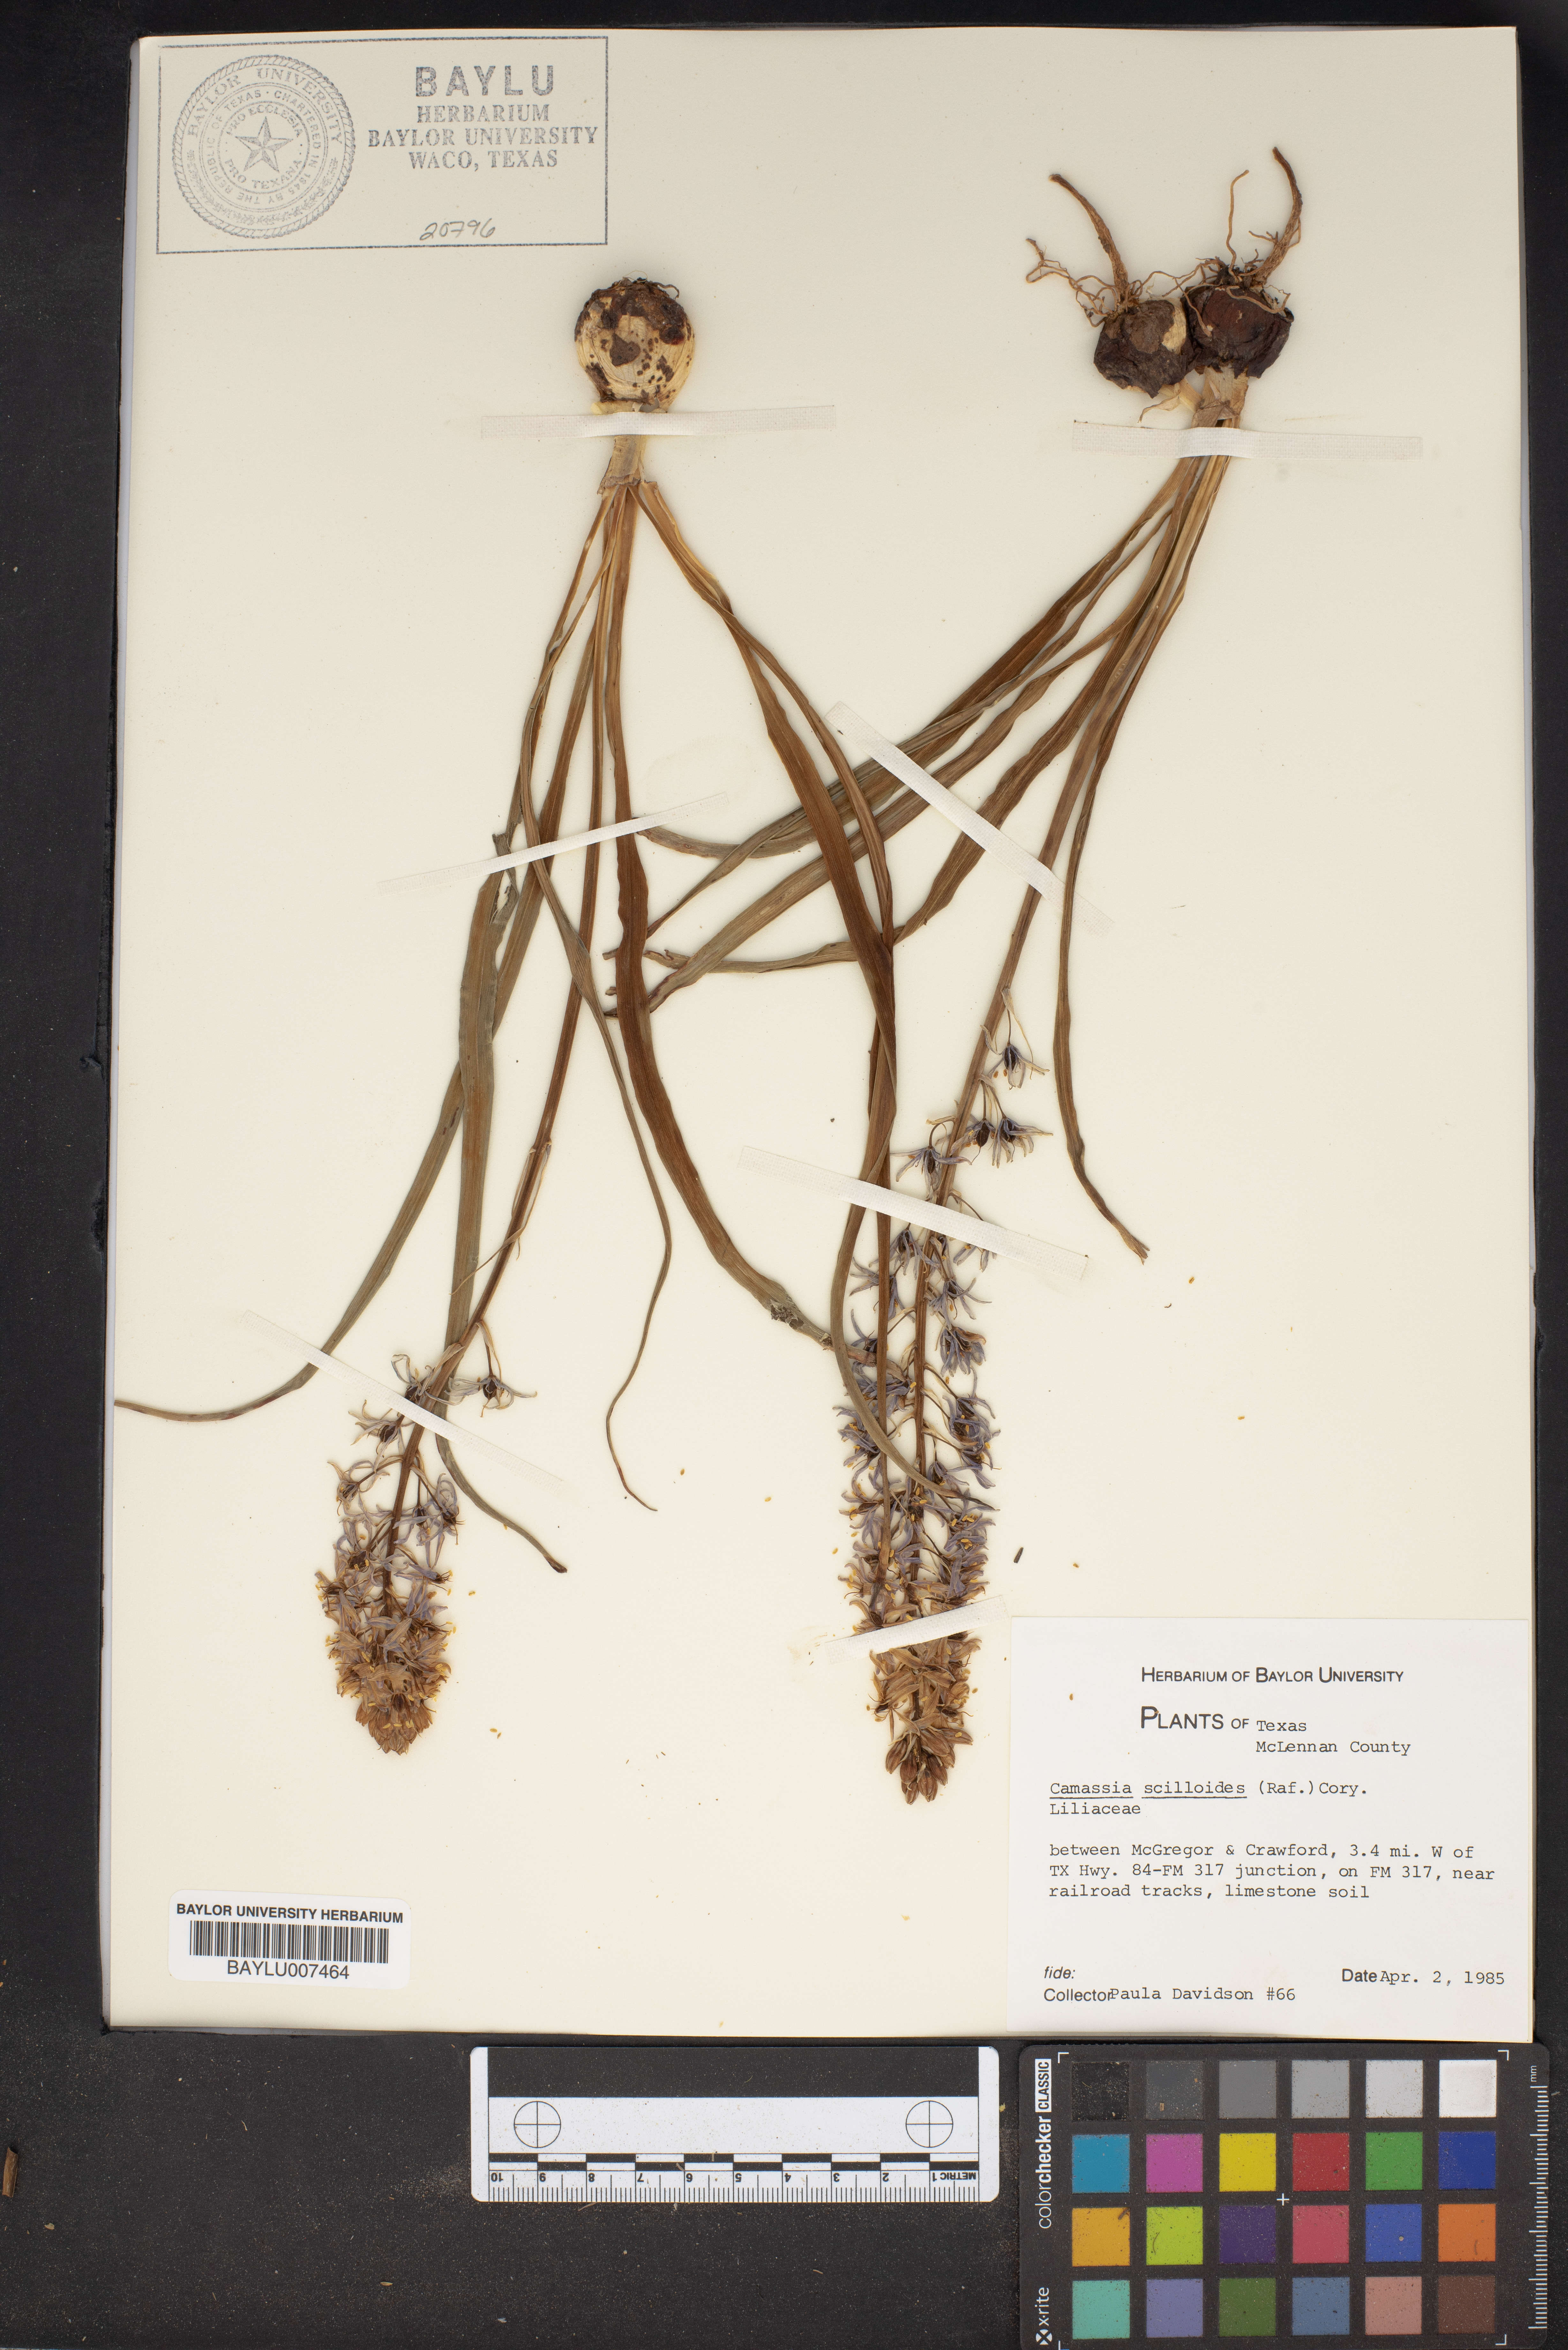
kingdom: Plantae
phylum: Tracheophyta
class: Liliopsida
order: Asparagales
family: Asparagaceae
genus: Camassia
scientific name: Camassia scilloides
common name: Wild hyacinth
